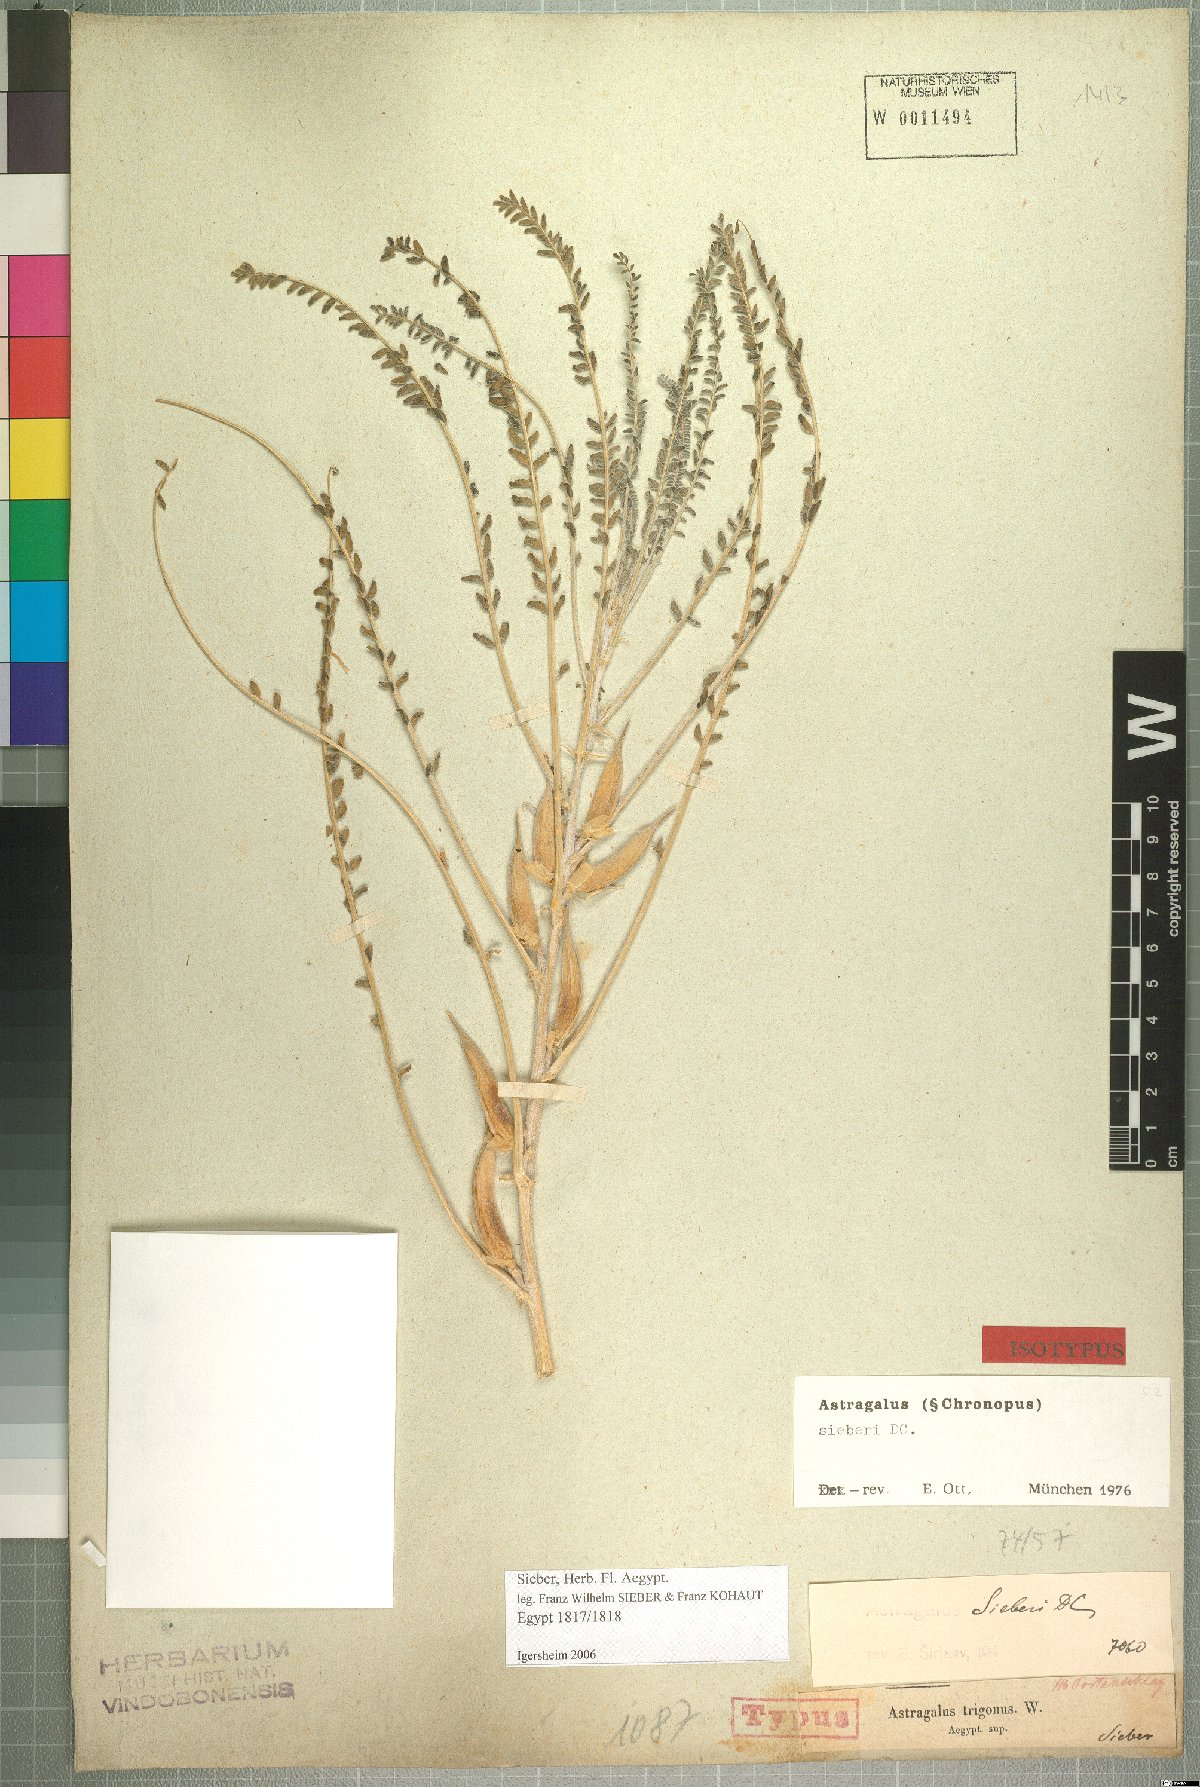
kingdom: Plantae
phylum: Tracheophyta
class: Magnoliopsida
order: Fabales
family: Fabaceae
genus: Astragalus
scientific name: Astragalus sieberi
